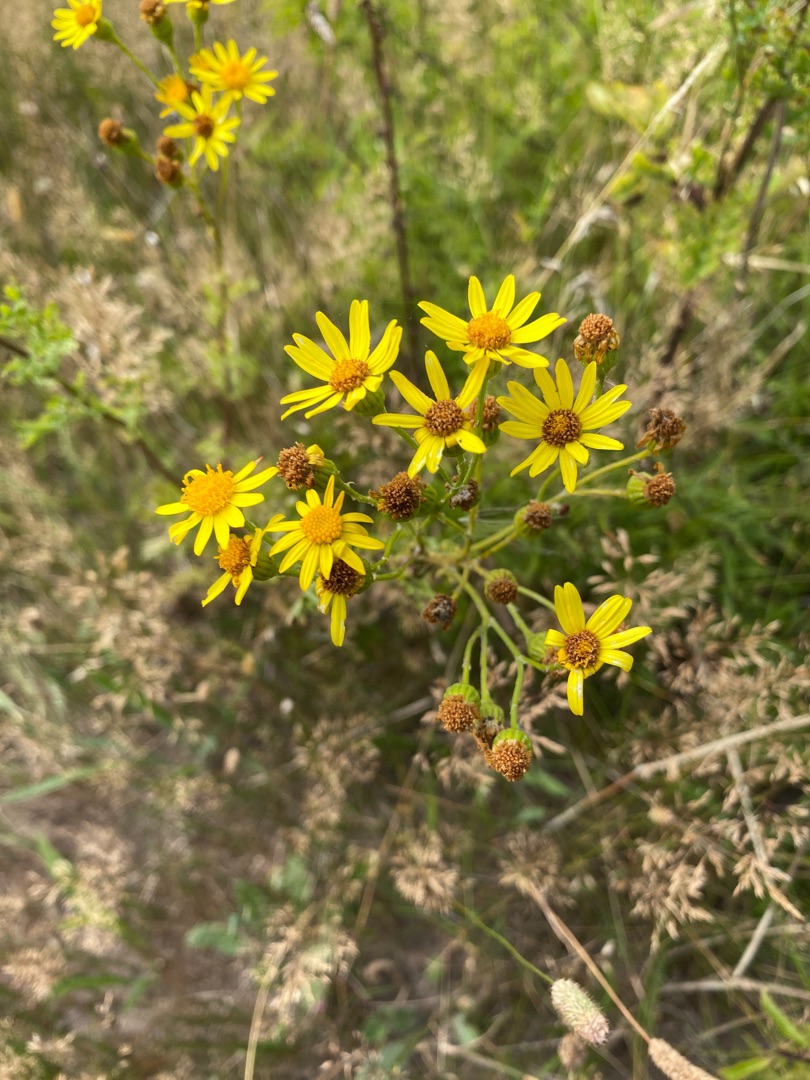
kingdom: Plantae
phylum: Tracheophyta
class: Magnoliopsida
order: Asterales
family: Asteraceae
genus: Jacobaea
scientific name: Jacobaea vulgaris
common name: Eng-brandbæger
